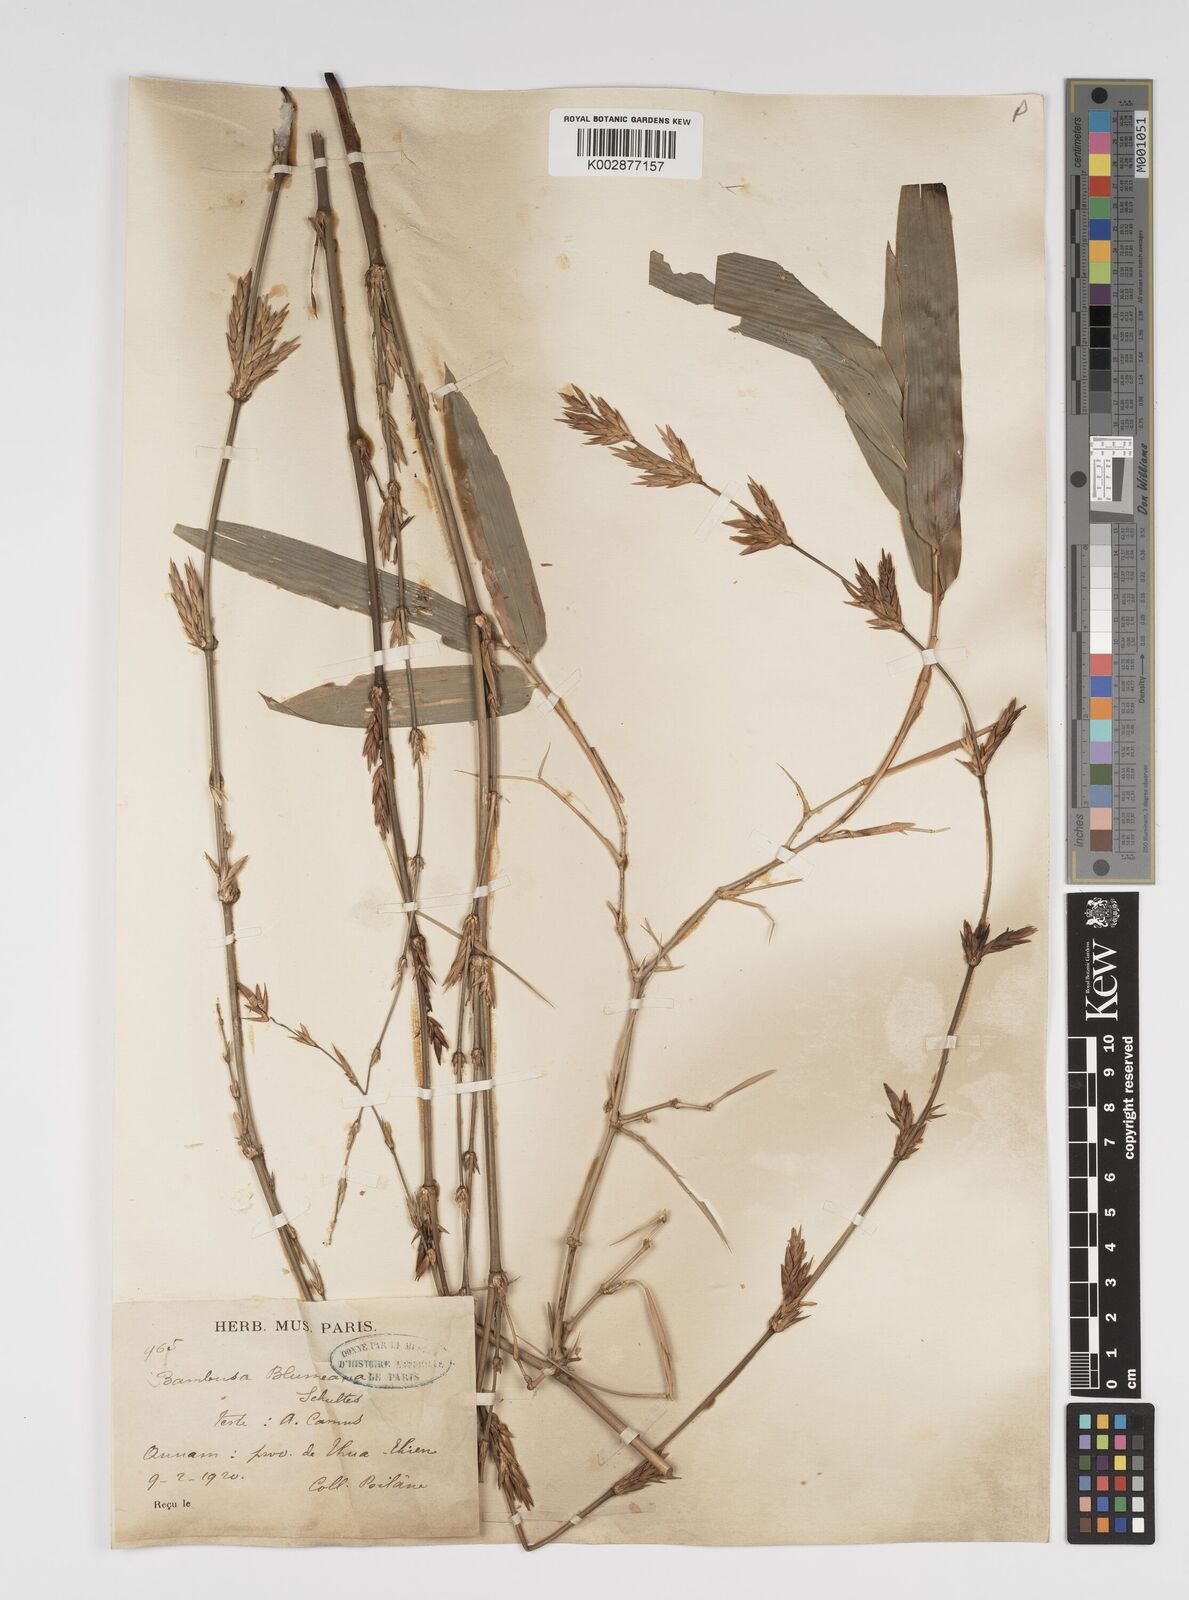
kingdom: Plantae
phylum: Tracheophyta
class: Liliopsida
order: Poales
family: Poaceae
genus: Bambusa
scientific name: Bambusa spinosa
